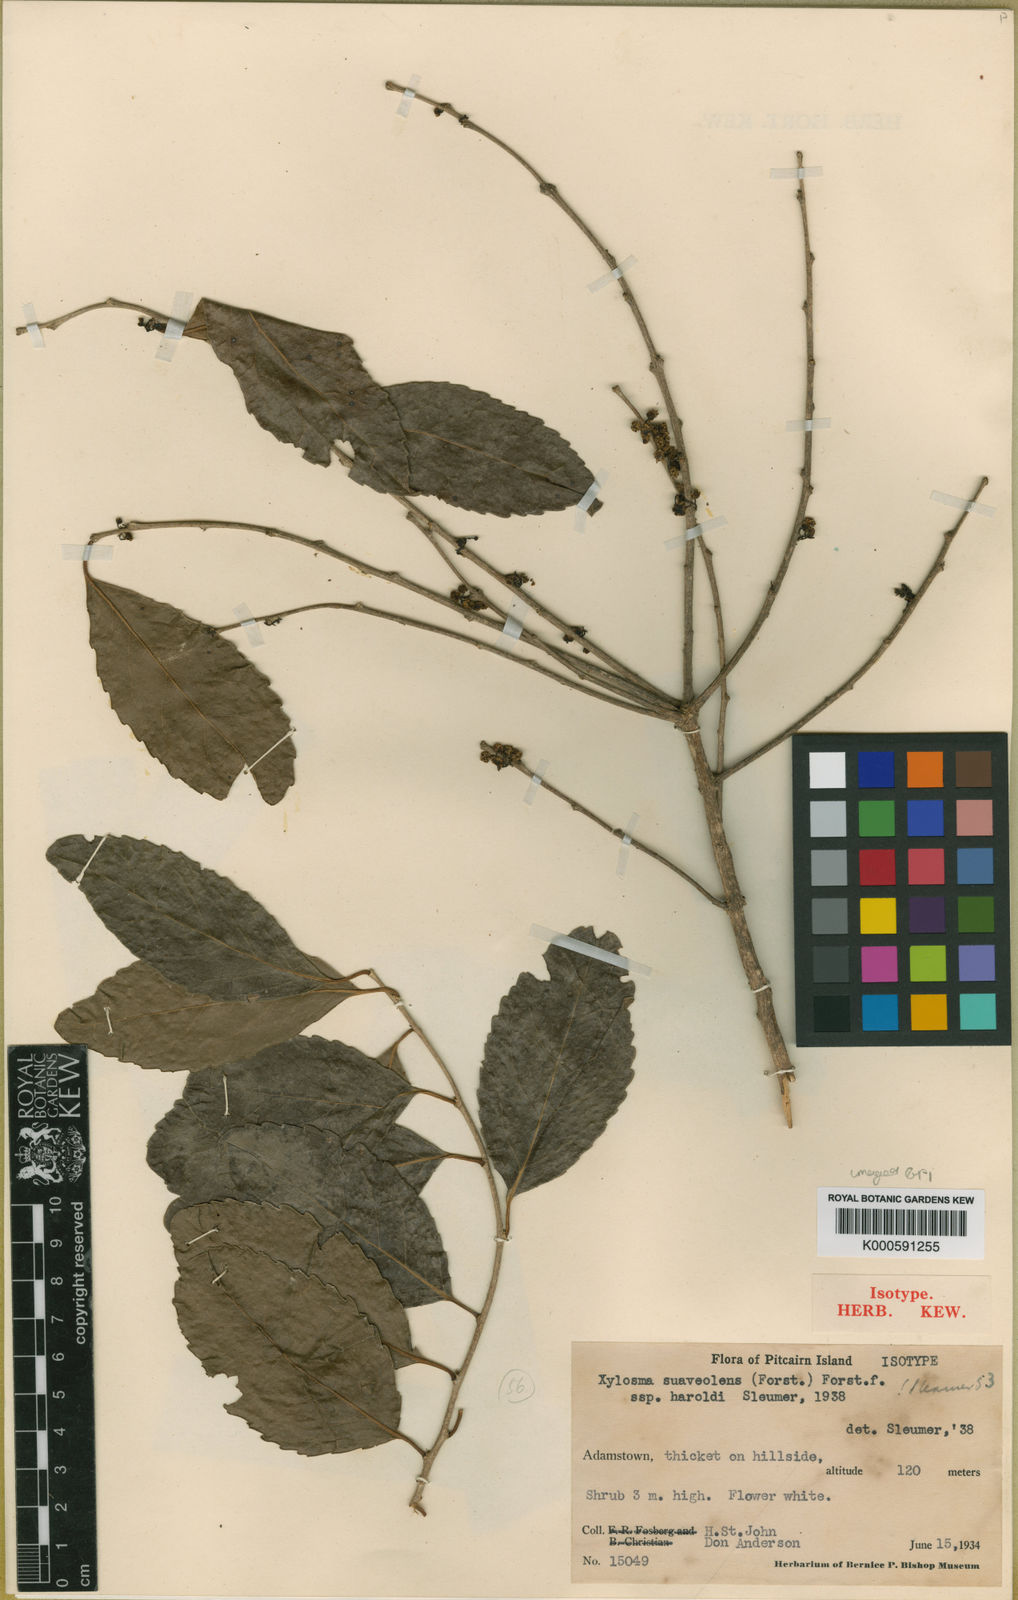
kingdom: Plantae
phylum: Tracheophyta
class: Magnoliopsida
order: Malpighiales
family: Salicaceae
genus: Xylosma
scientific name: Xylosma suaveolens
